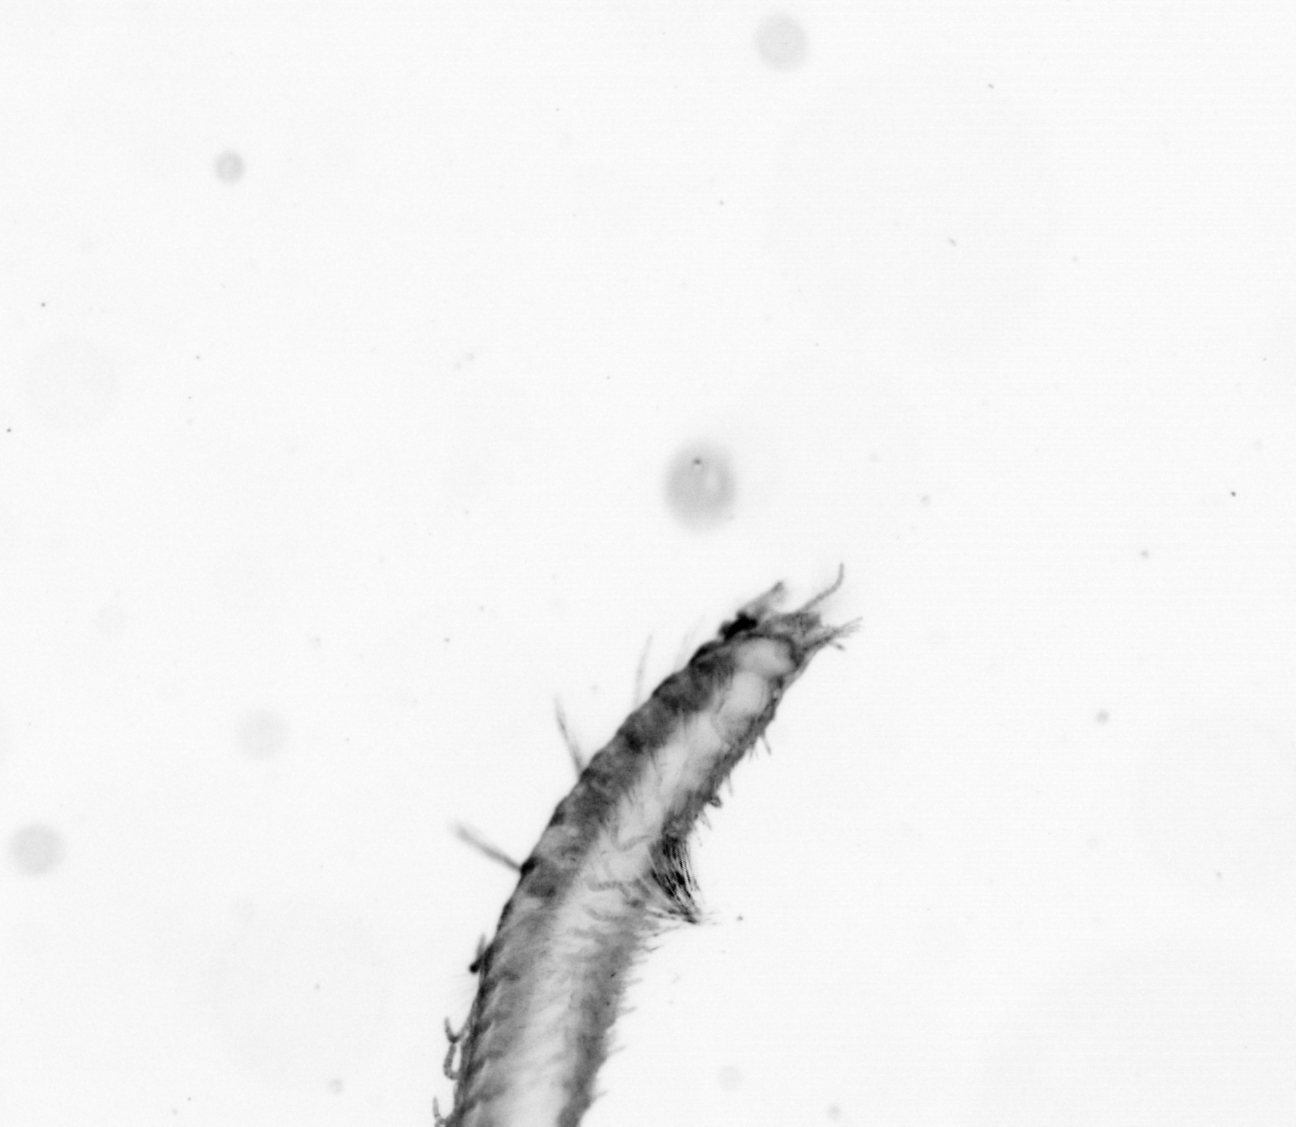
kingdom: Animalia
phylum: Annelida
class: Polychaeta
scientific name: Polychaeta
